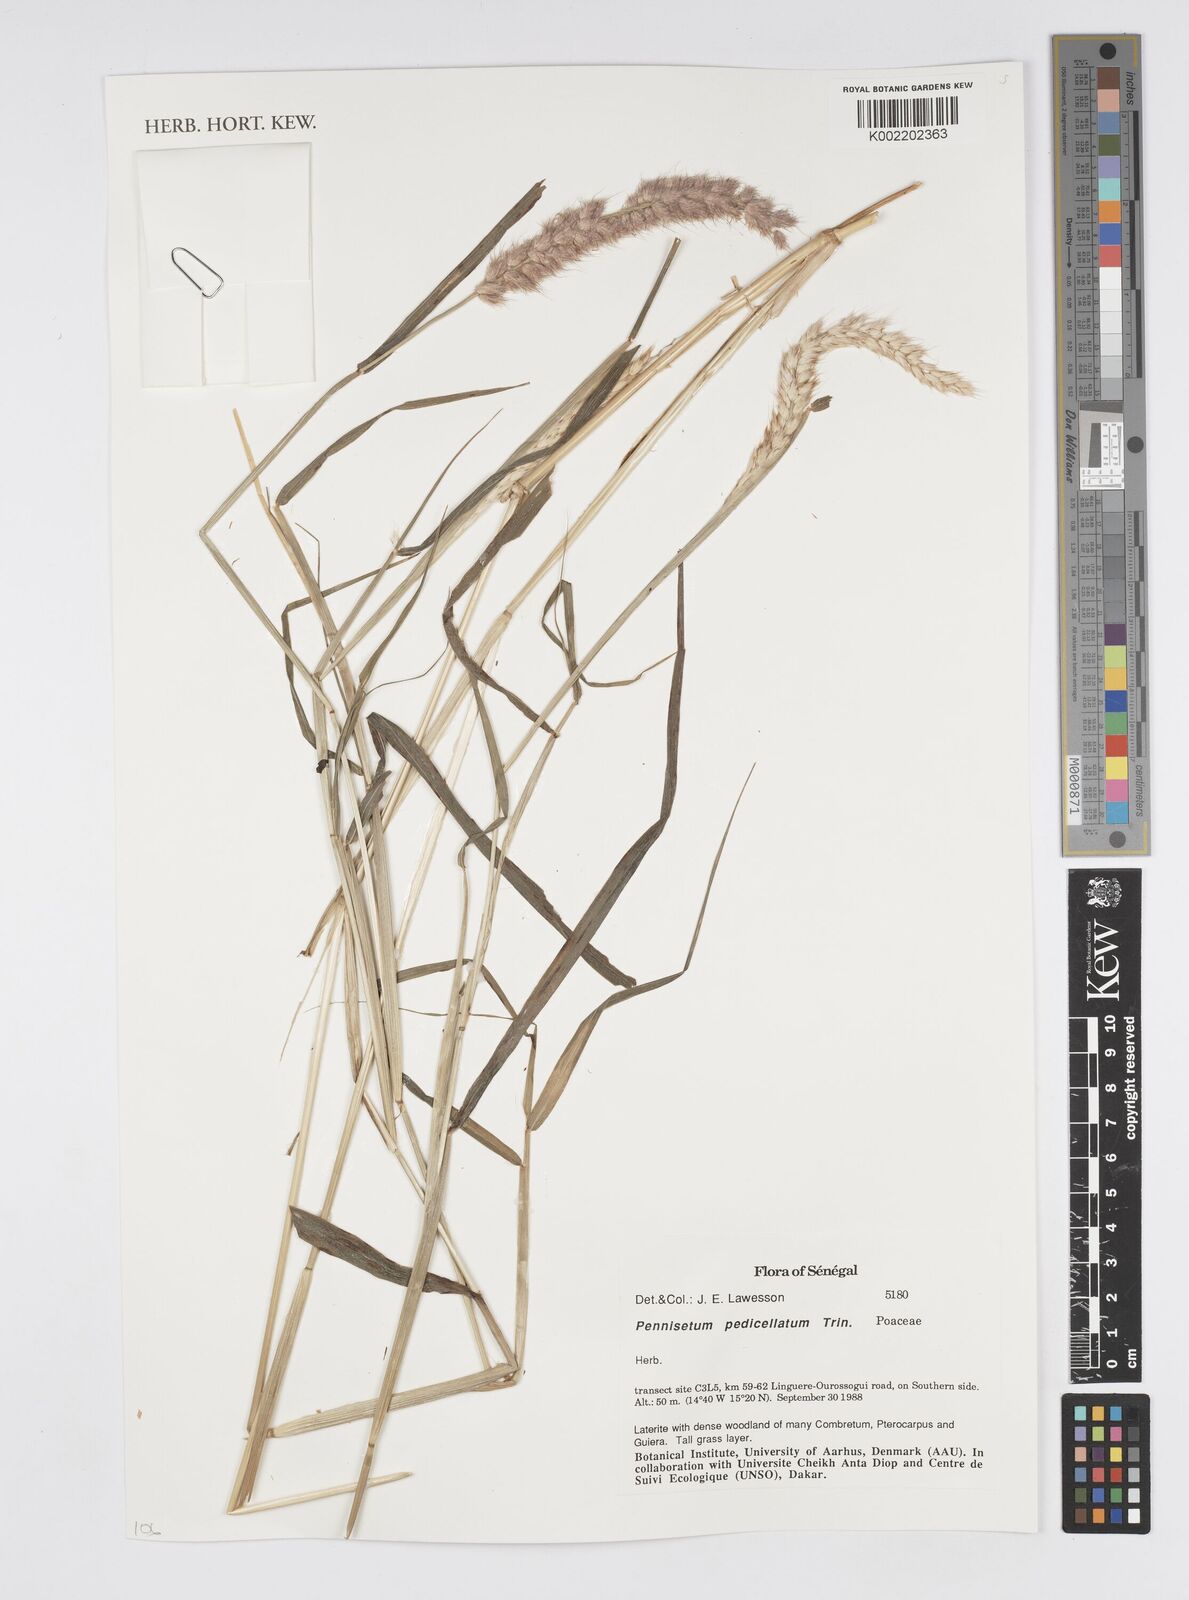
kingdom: Plantae
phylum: Tracheophyta
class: Liliopsida
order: Poales
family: Poaceae
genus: Cenchrus
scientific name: Cenchrus pedicellatus
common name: Hairy fountain grass
